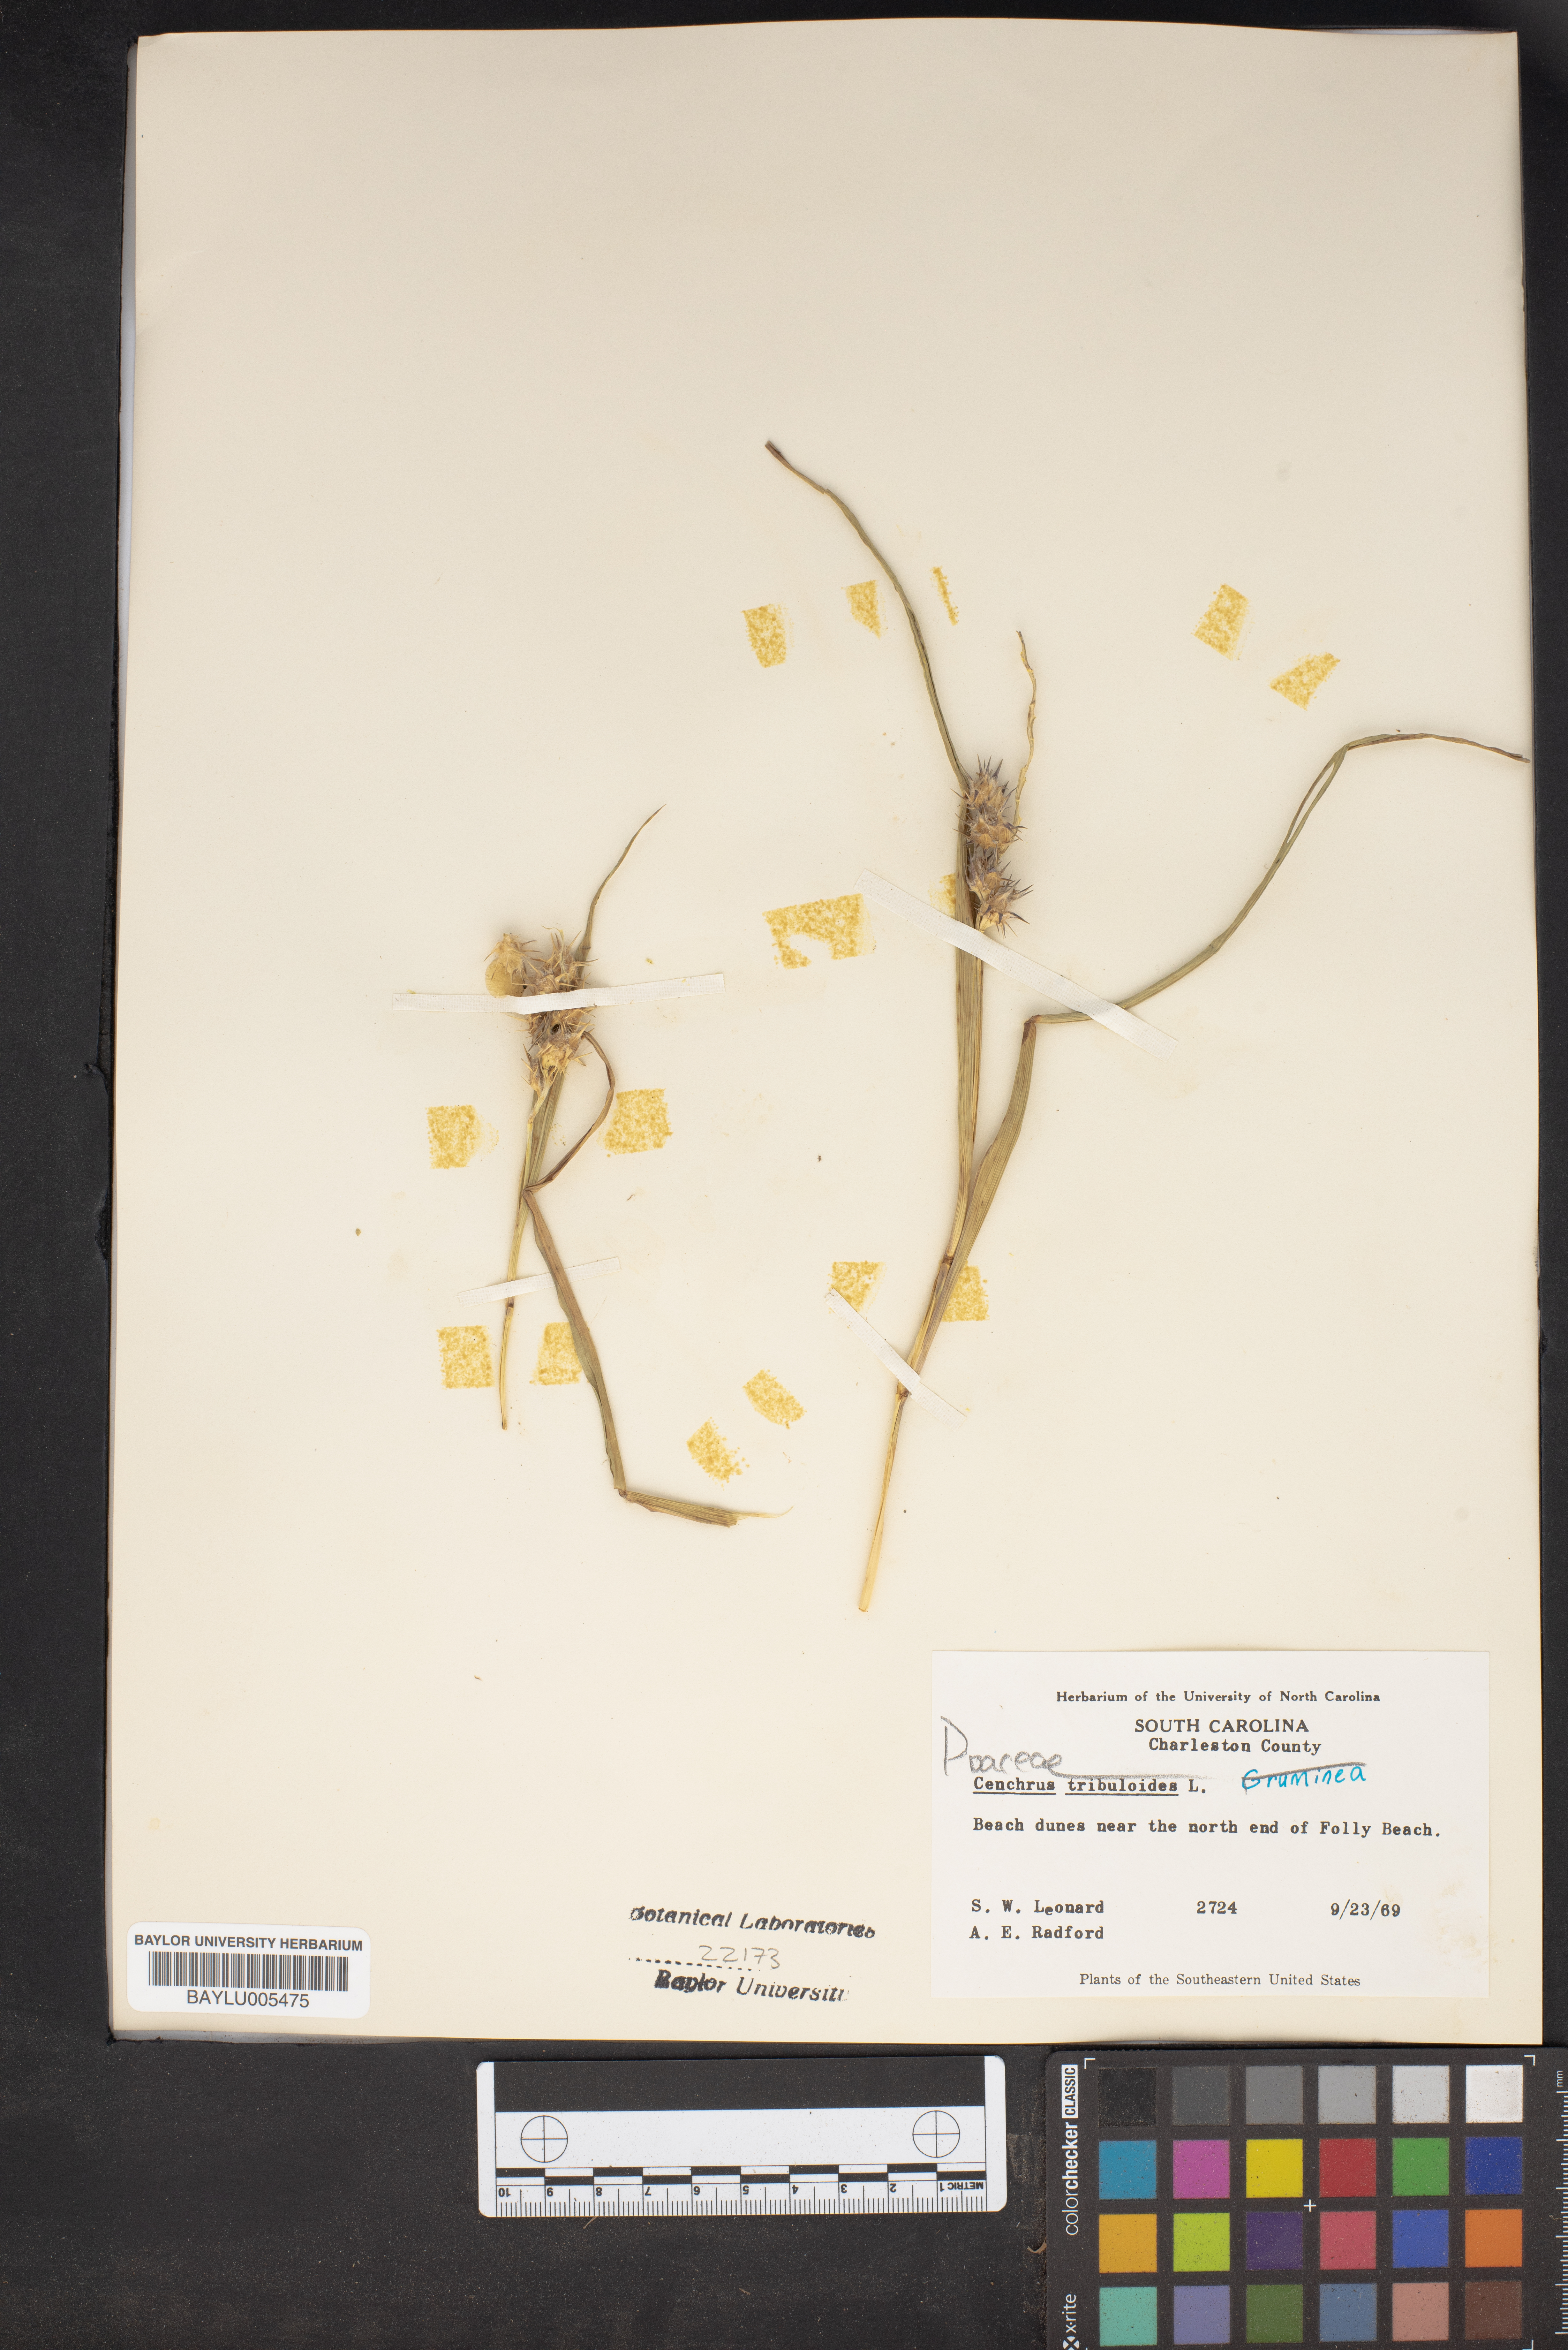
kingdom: Plantae
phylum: Tracheophyta
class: Liliopsida
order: Poales
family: Poaceae
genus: Cenchrus
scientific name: Cenchrus tribuloides
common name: Dune sandbur
